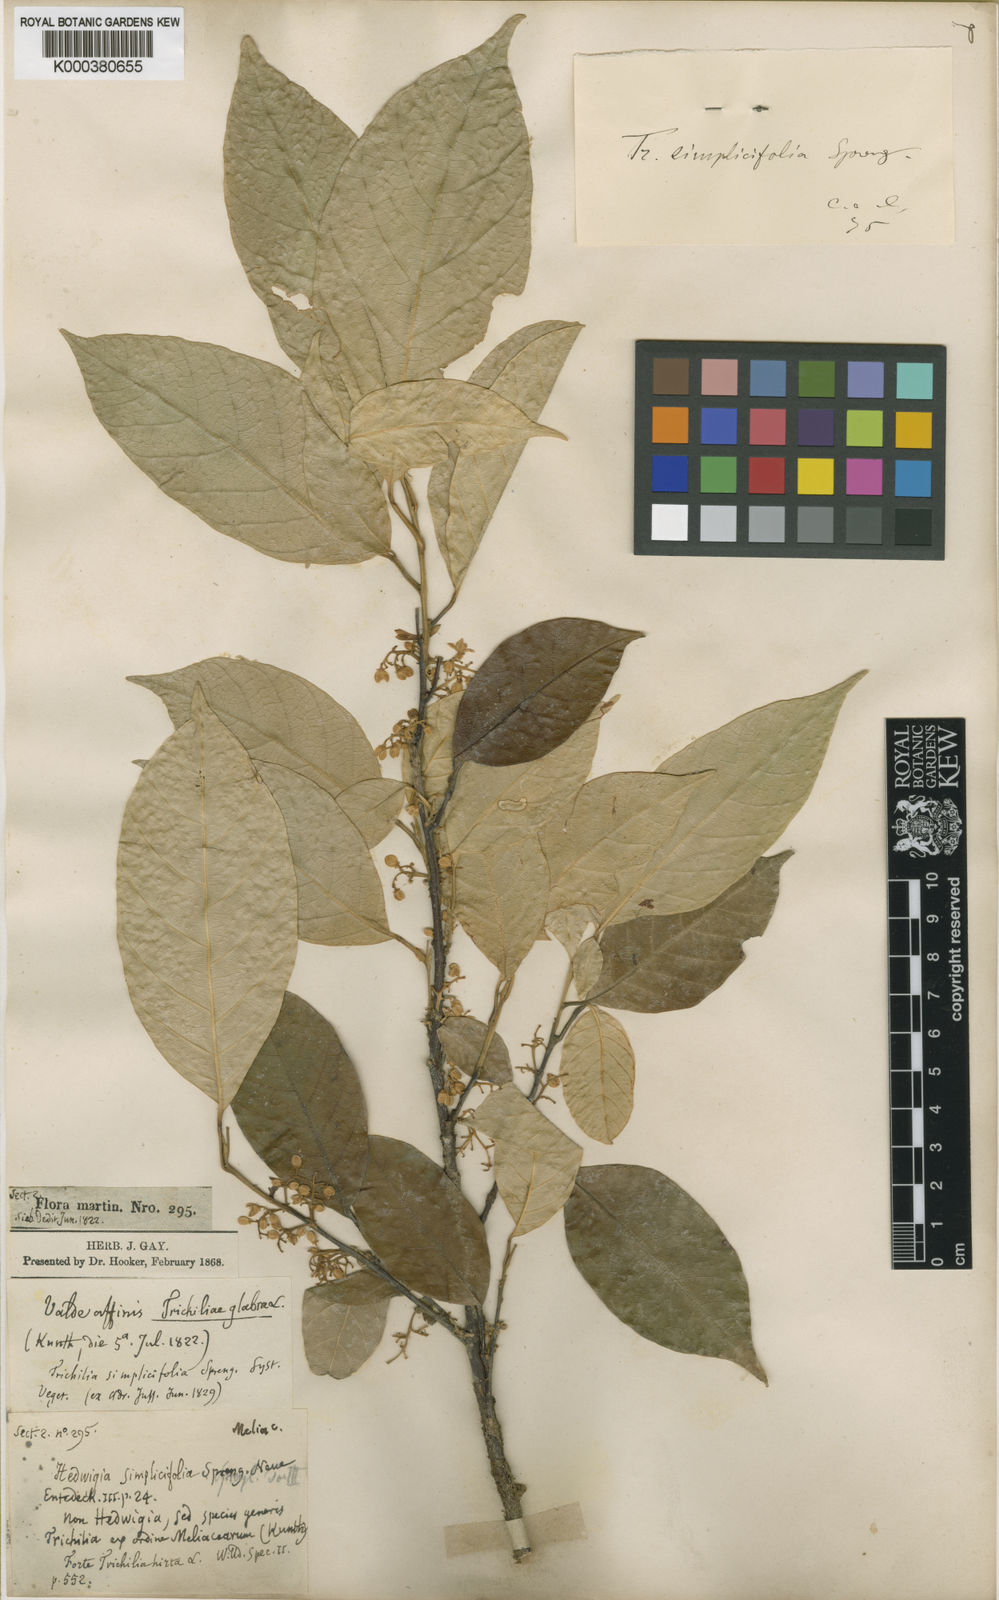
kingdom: Plantae
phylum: Tracheophyta
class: Magnoliopsida
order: Sapindales
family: Meliaceae
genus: Trichilia
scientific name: Trichilia pallida
